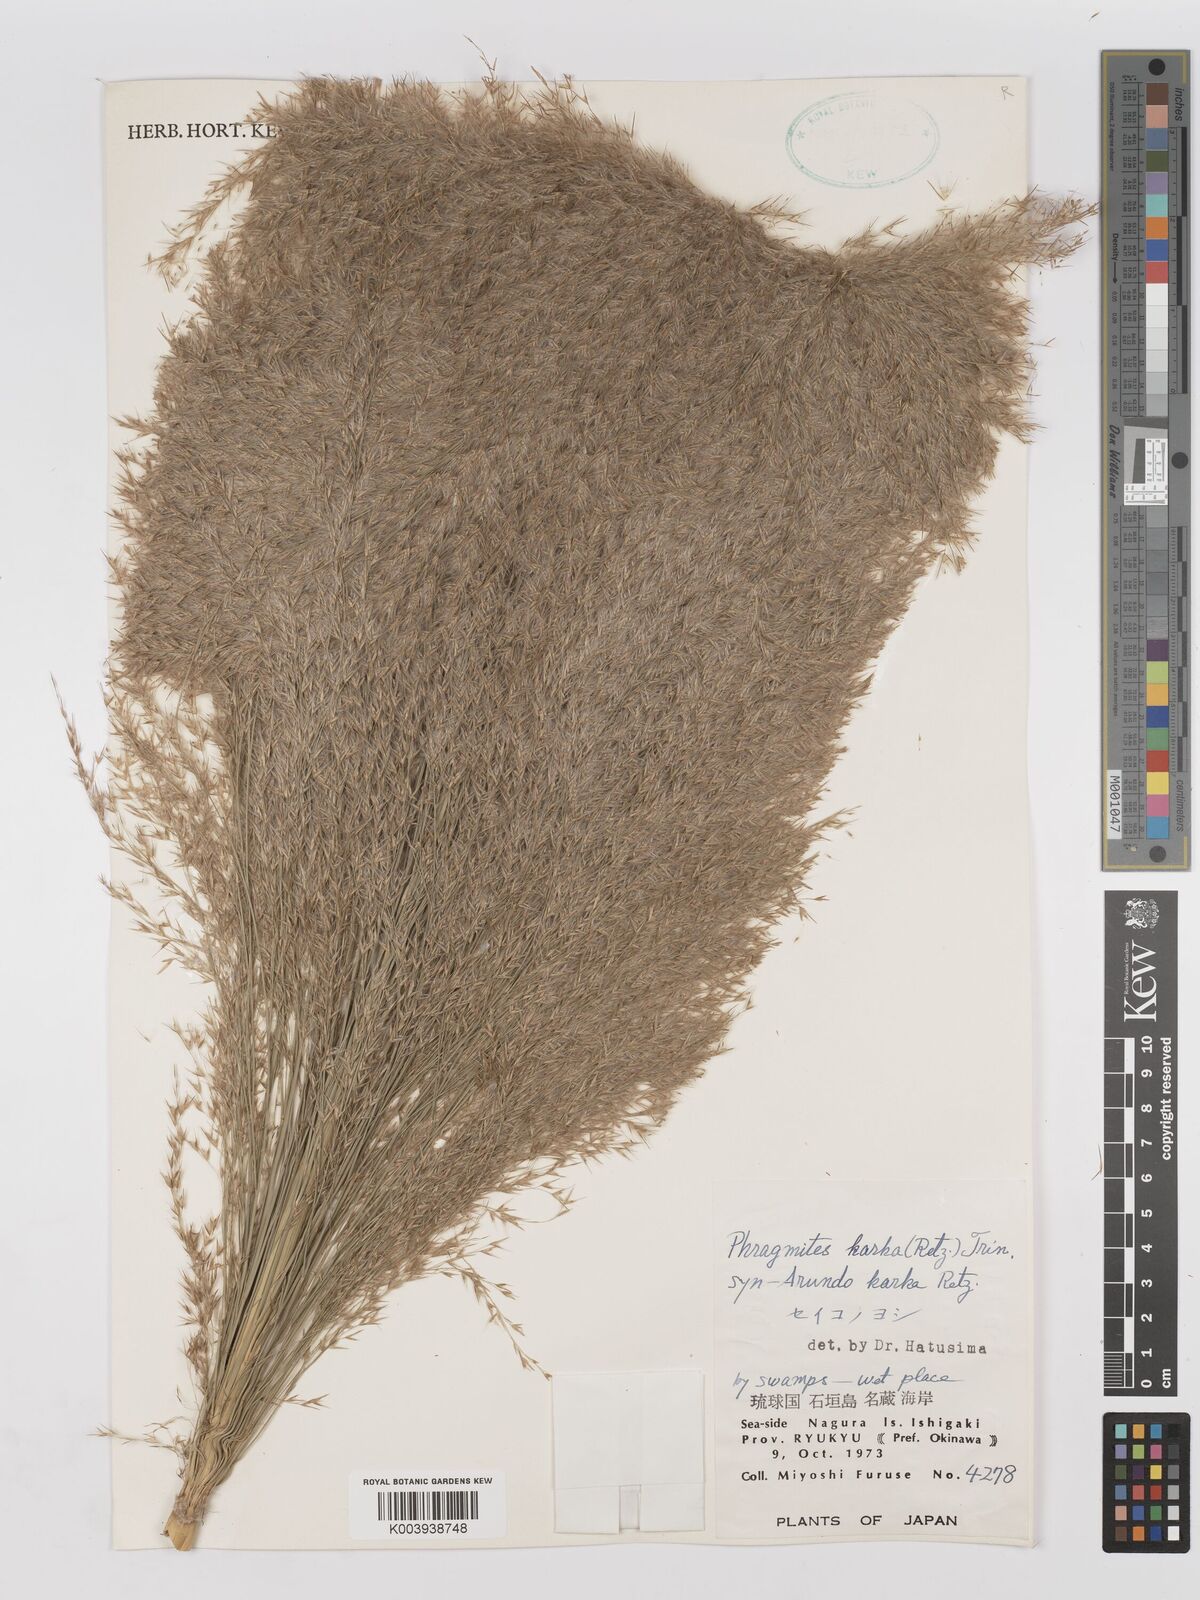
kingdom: Plantae
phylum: Tracheophyta
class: Liliopsida
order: Poales
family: Poaceae
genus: Phragmites
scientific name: Phragmites karka
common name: Tropical reed
